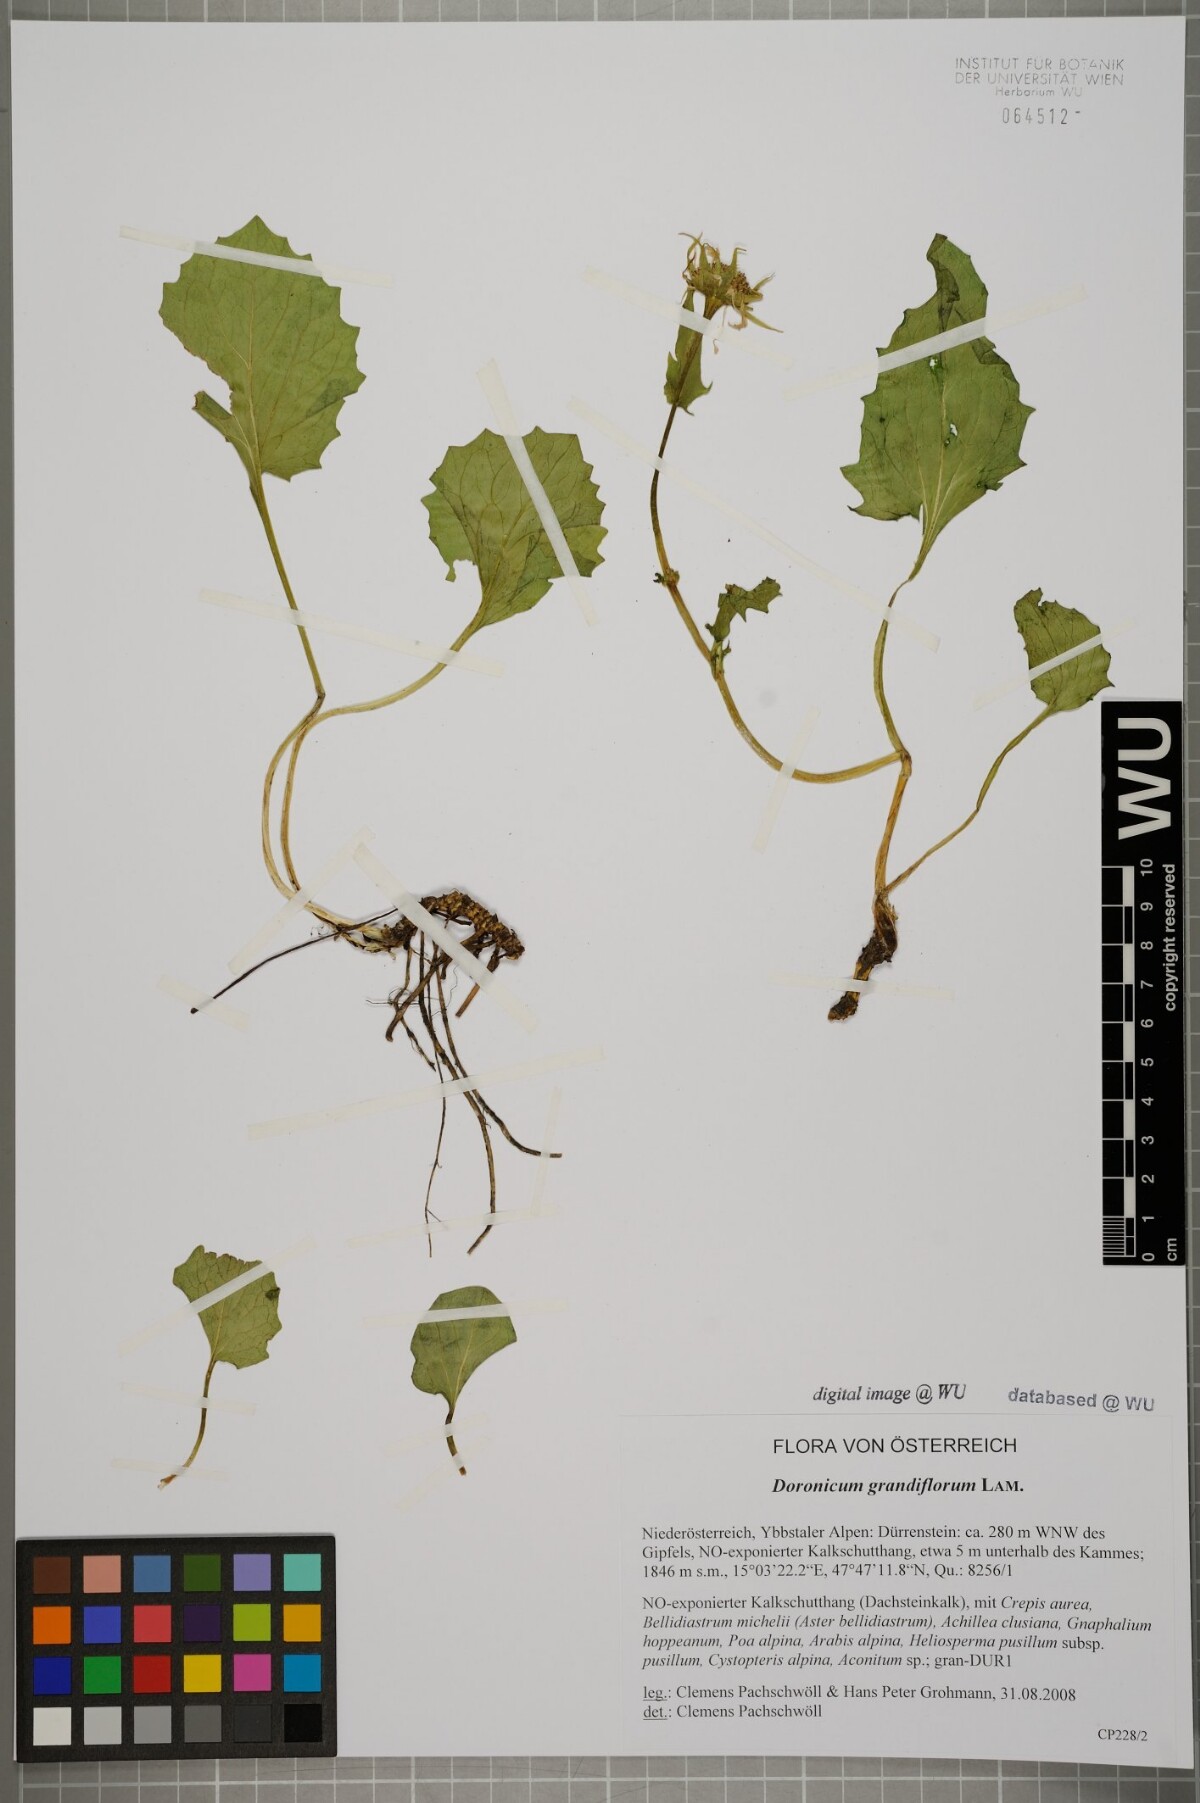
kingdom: Plantae
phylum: Tracheophyta
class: Magnoliopsida
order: Asterales
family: Asteraceae
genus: Doronicum
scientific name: Doronicum grandiflorum
